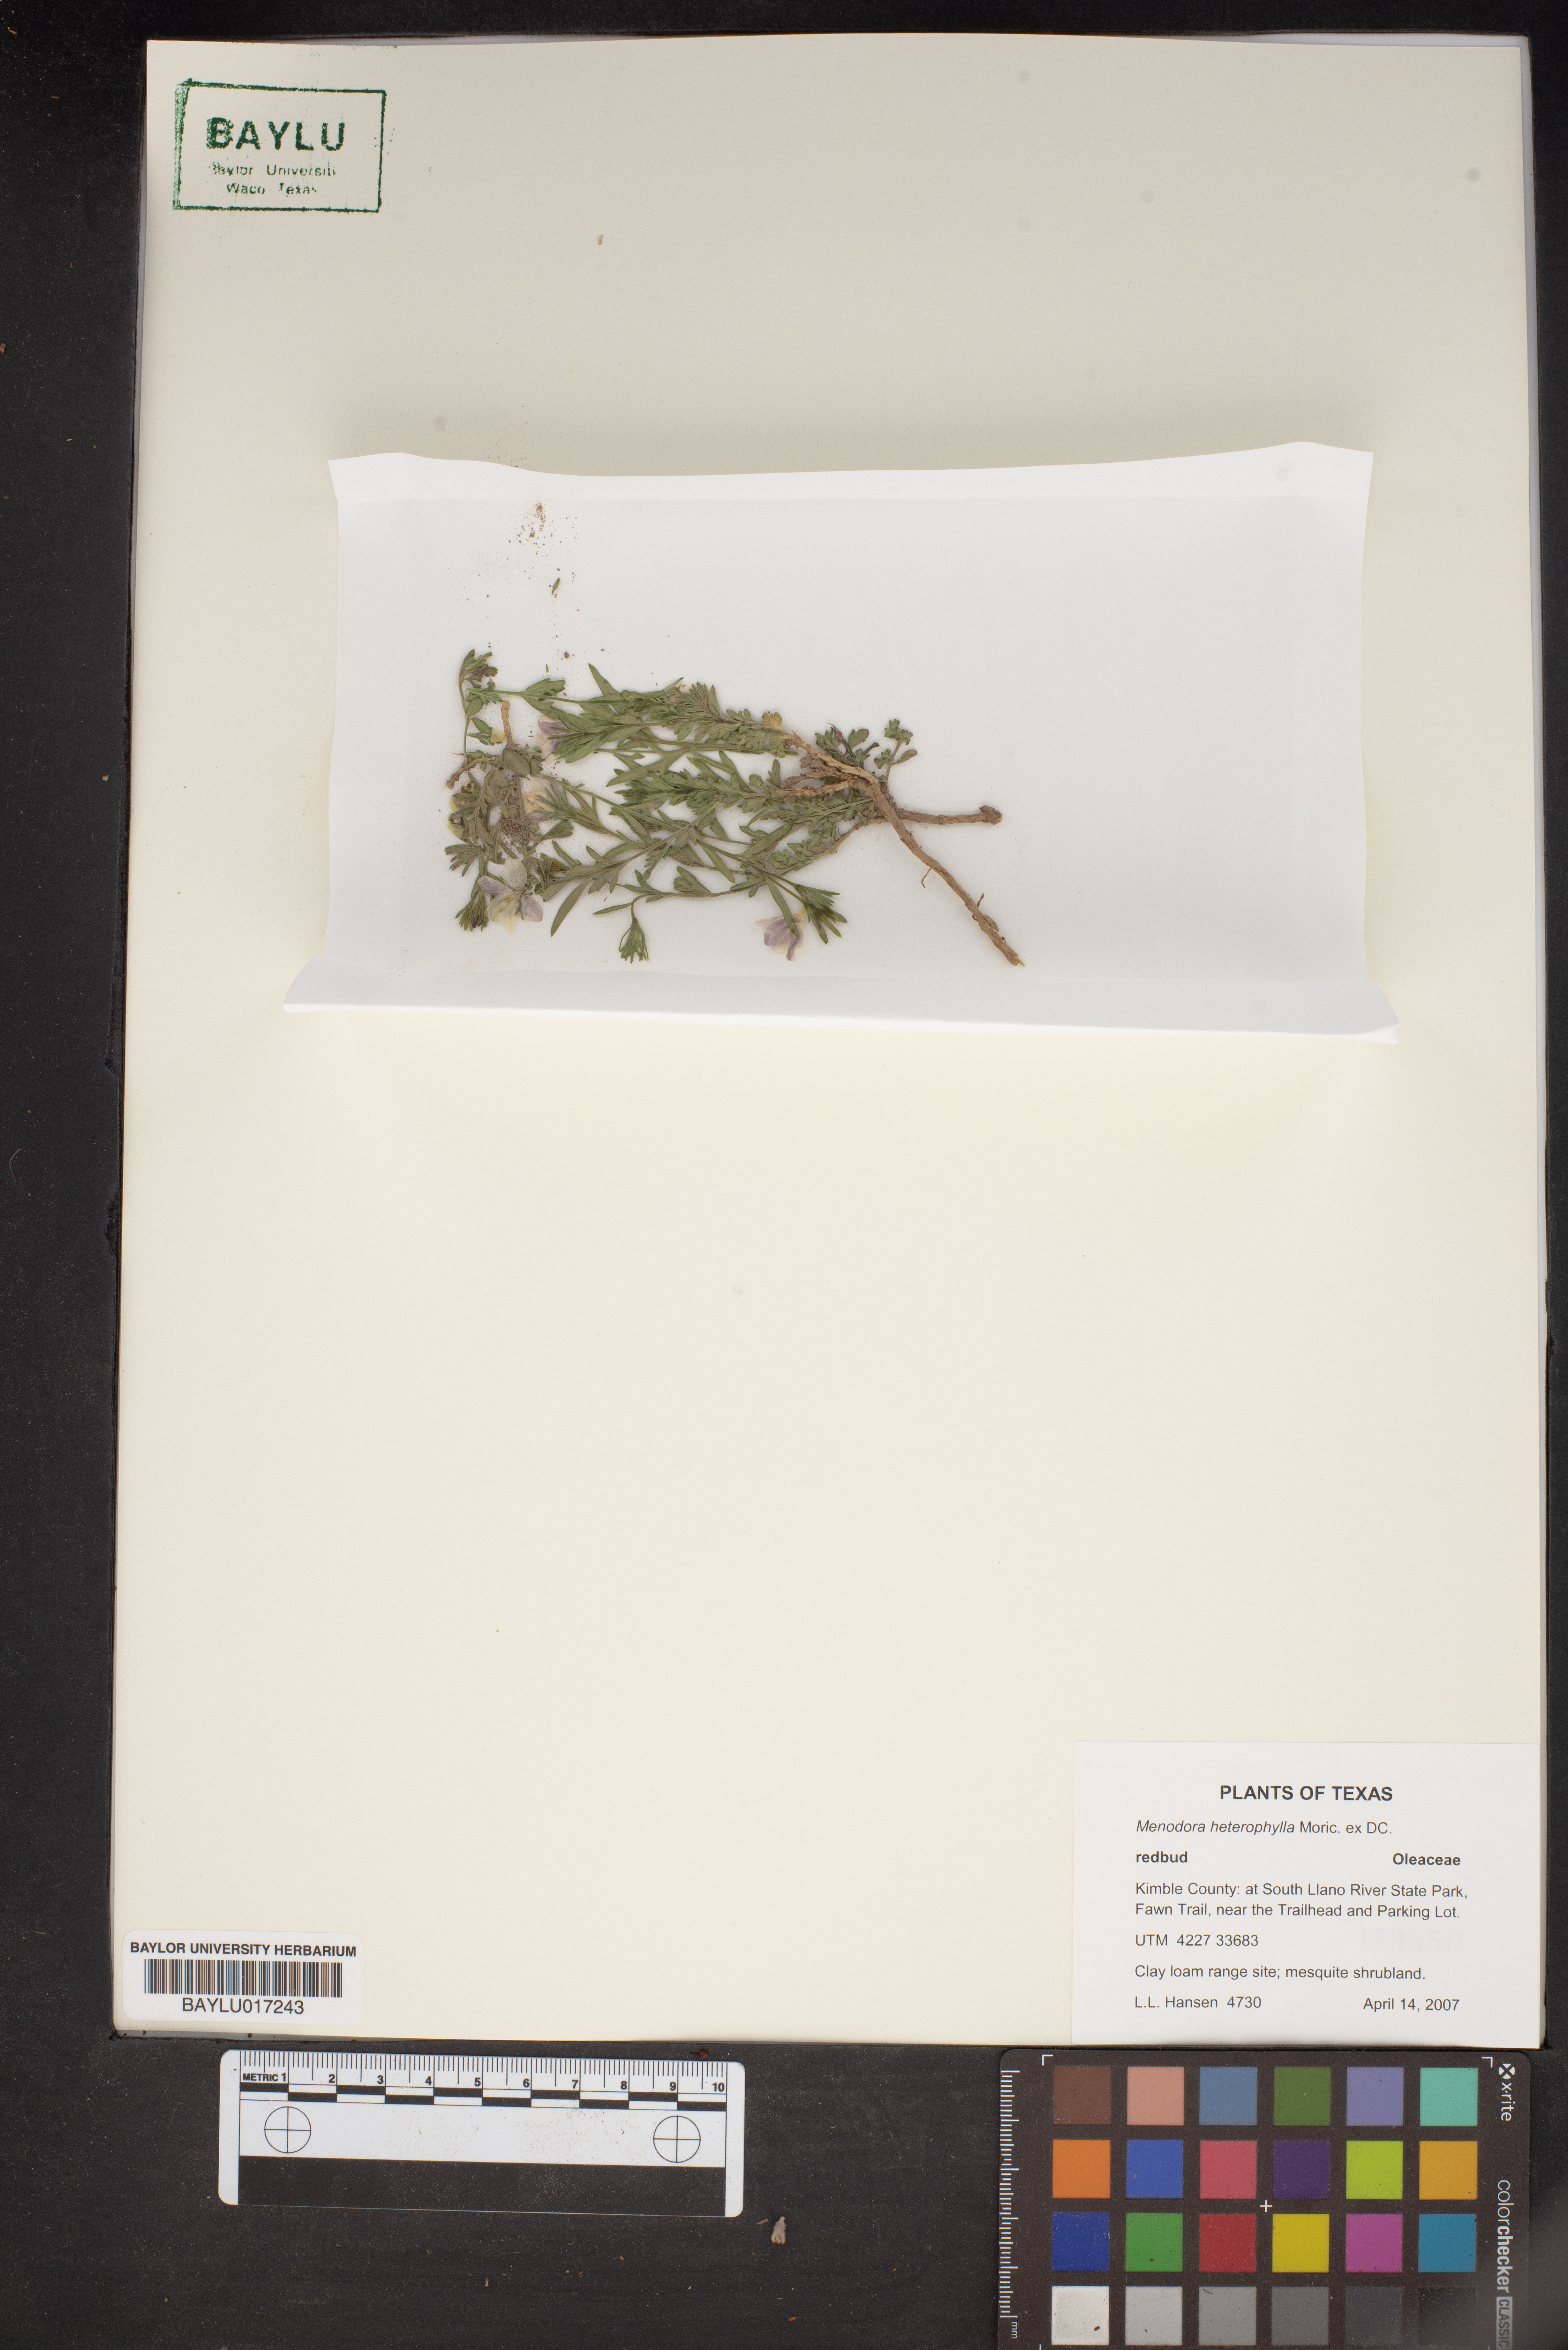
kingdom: Plantae
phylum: Tracheophyta
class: Magnoliopsida
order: Lamiales
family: Oleaceae
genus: Menodora
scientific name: Menodora heterophylla
